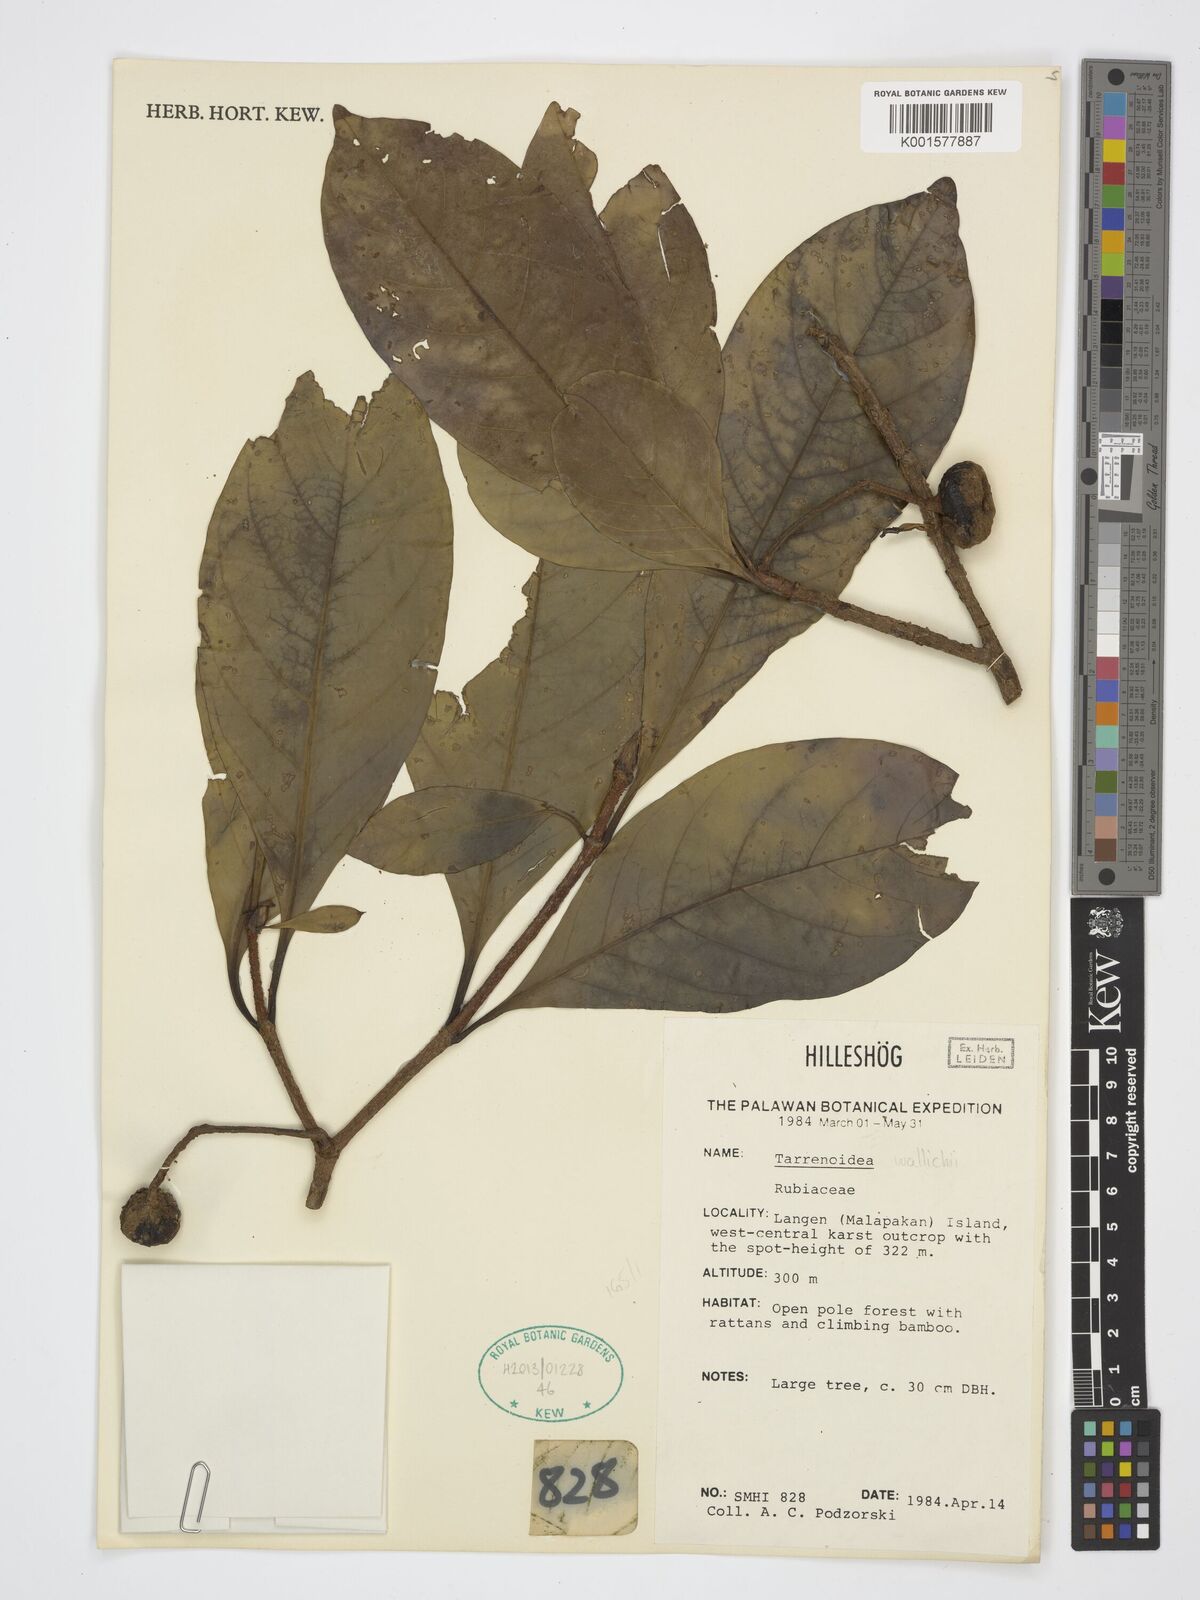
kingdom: Plantae
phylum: Tracheophyta
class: Magnoliopsida
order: Gentianales
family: Rubiaceae
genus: Tarennoidea
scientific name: Tarennoidea wallichii
